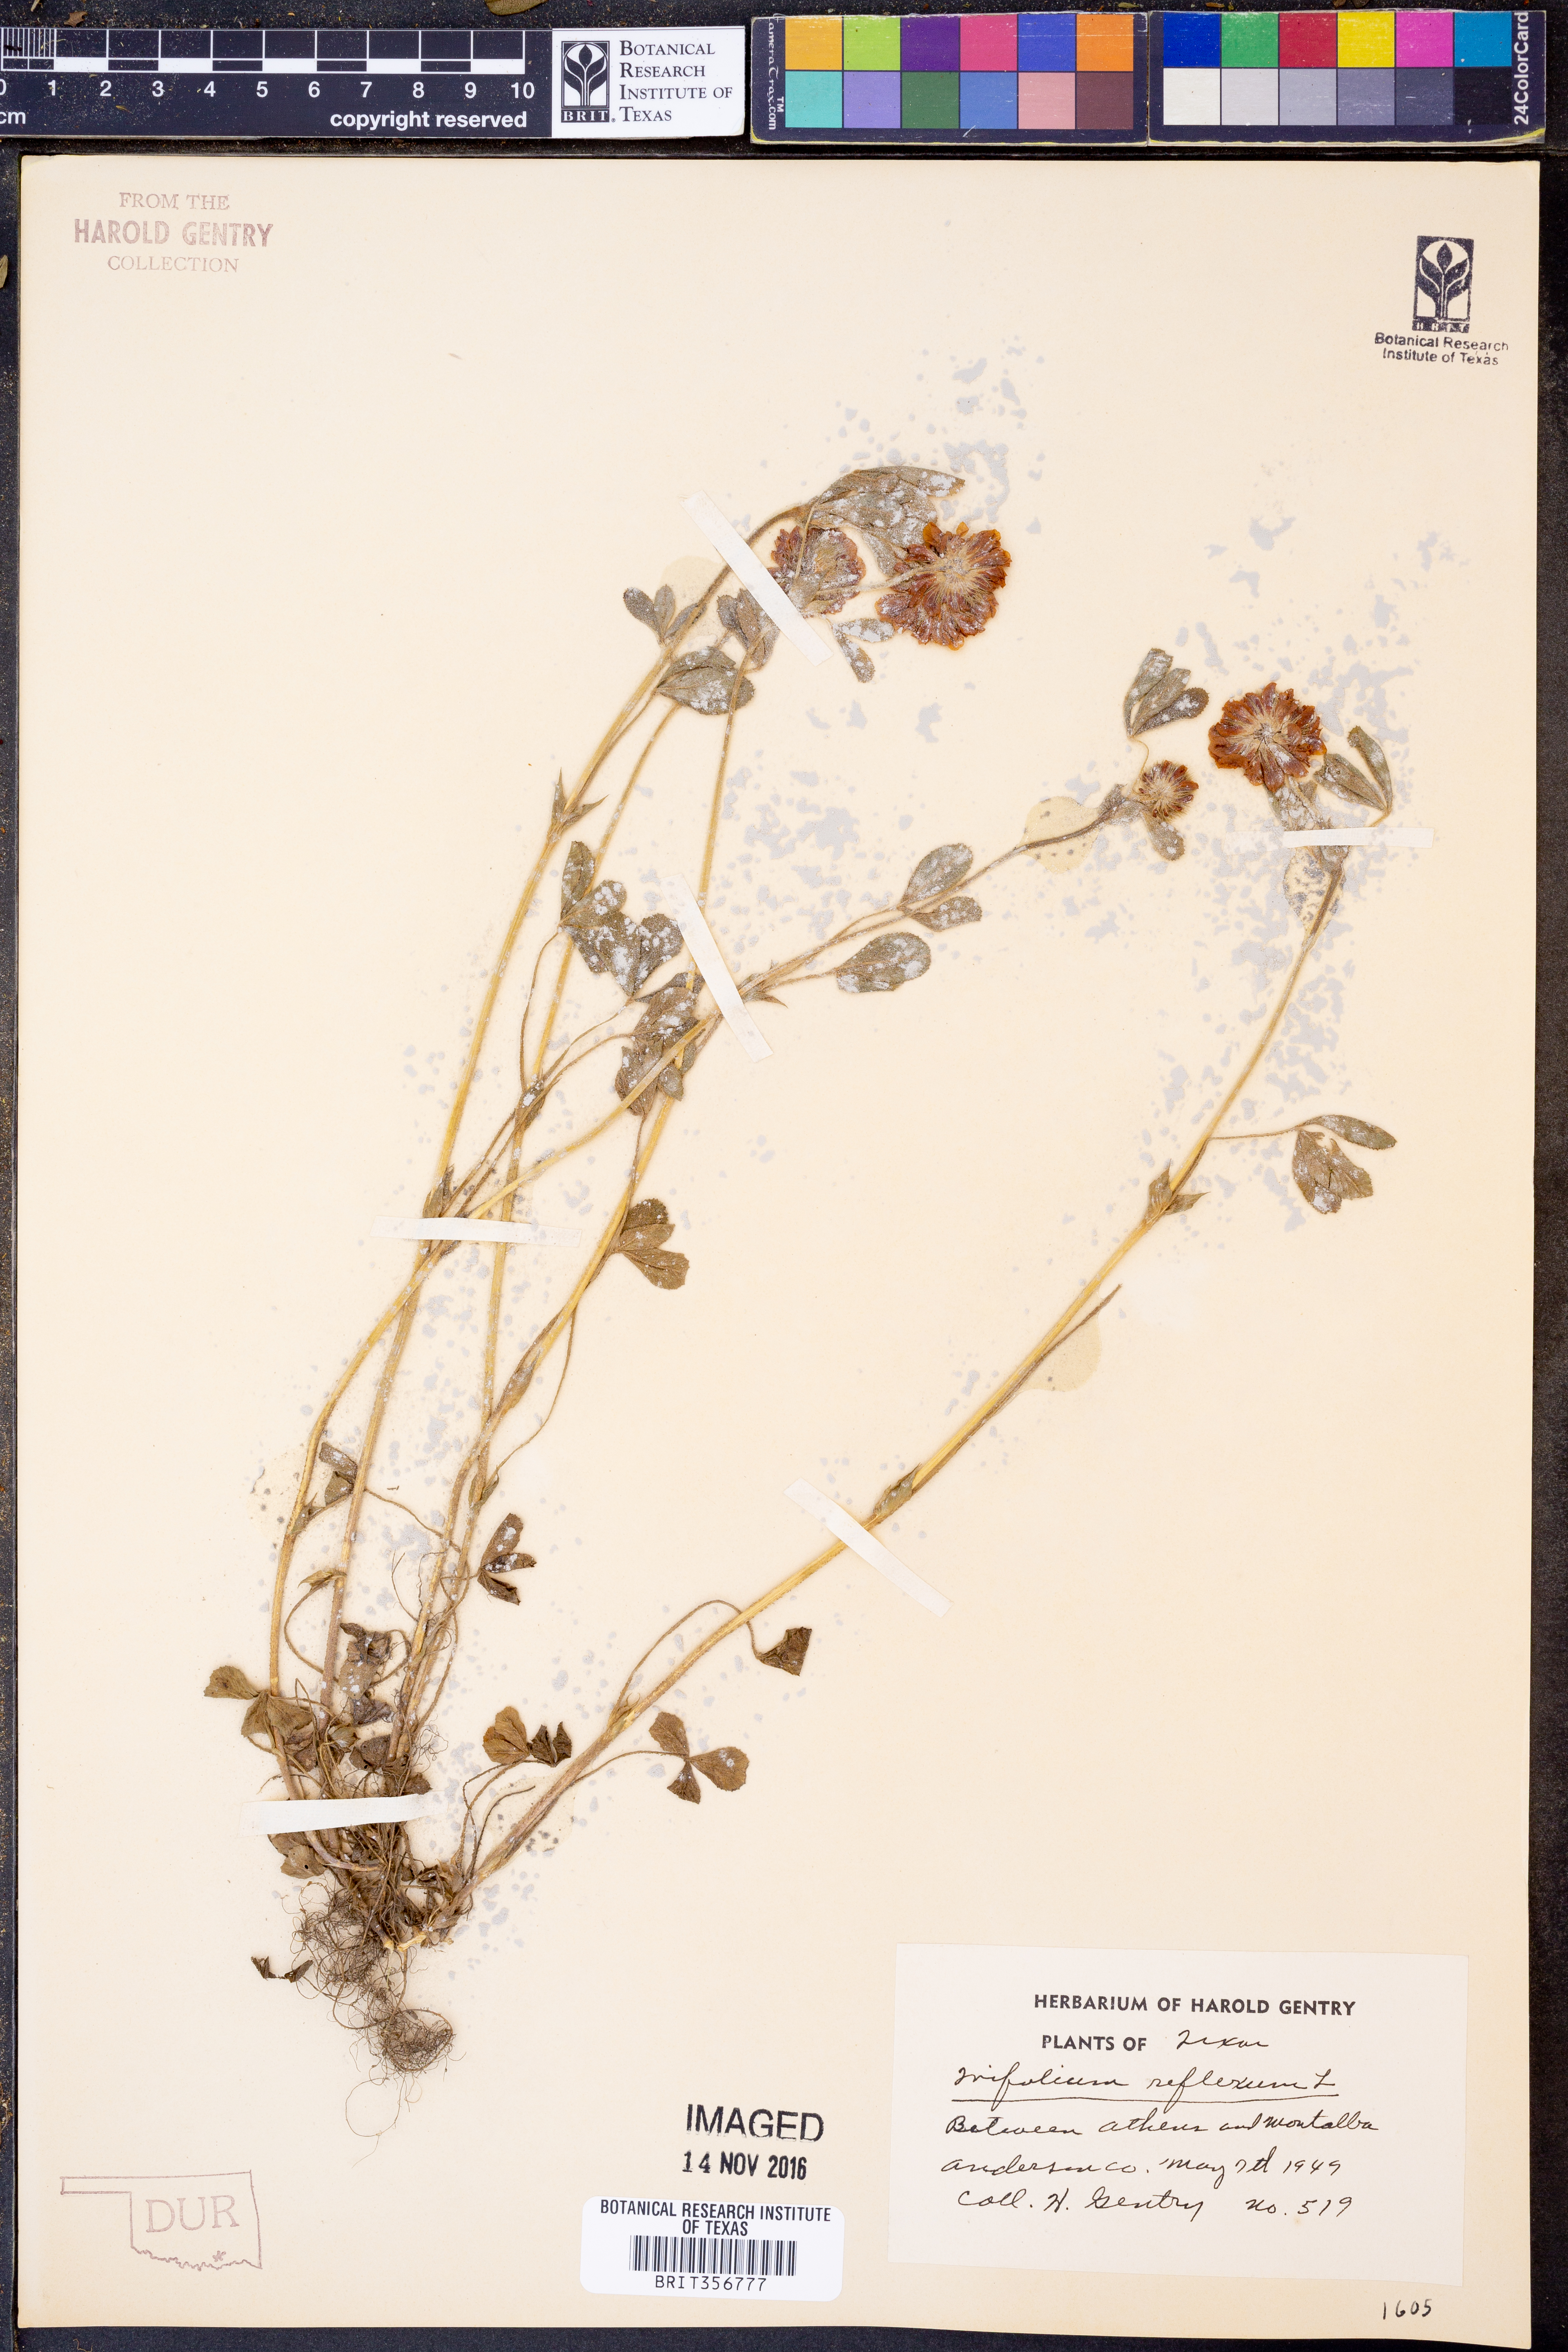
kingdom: Plantae
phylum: Tracheophyta
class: Magnoliopsida
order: Fabales
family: Fabaceae
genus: Trifolium
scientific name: Trifolium reflexum
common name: Buffalo clover
